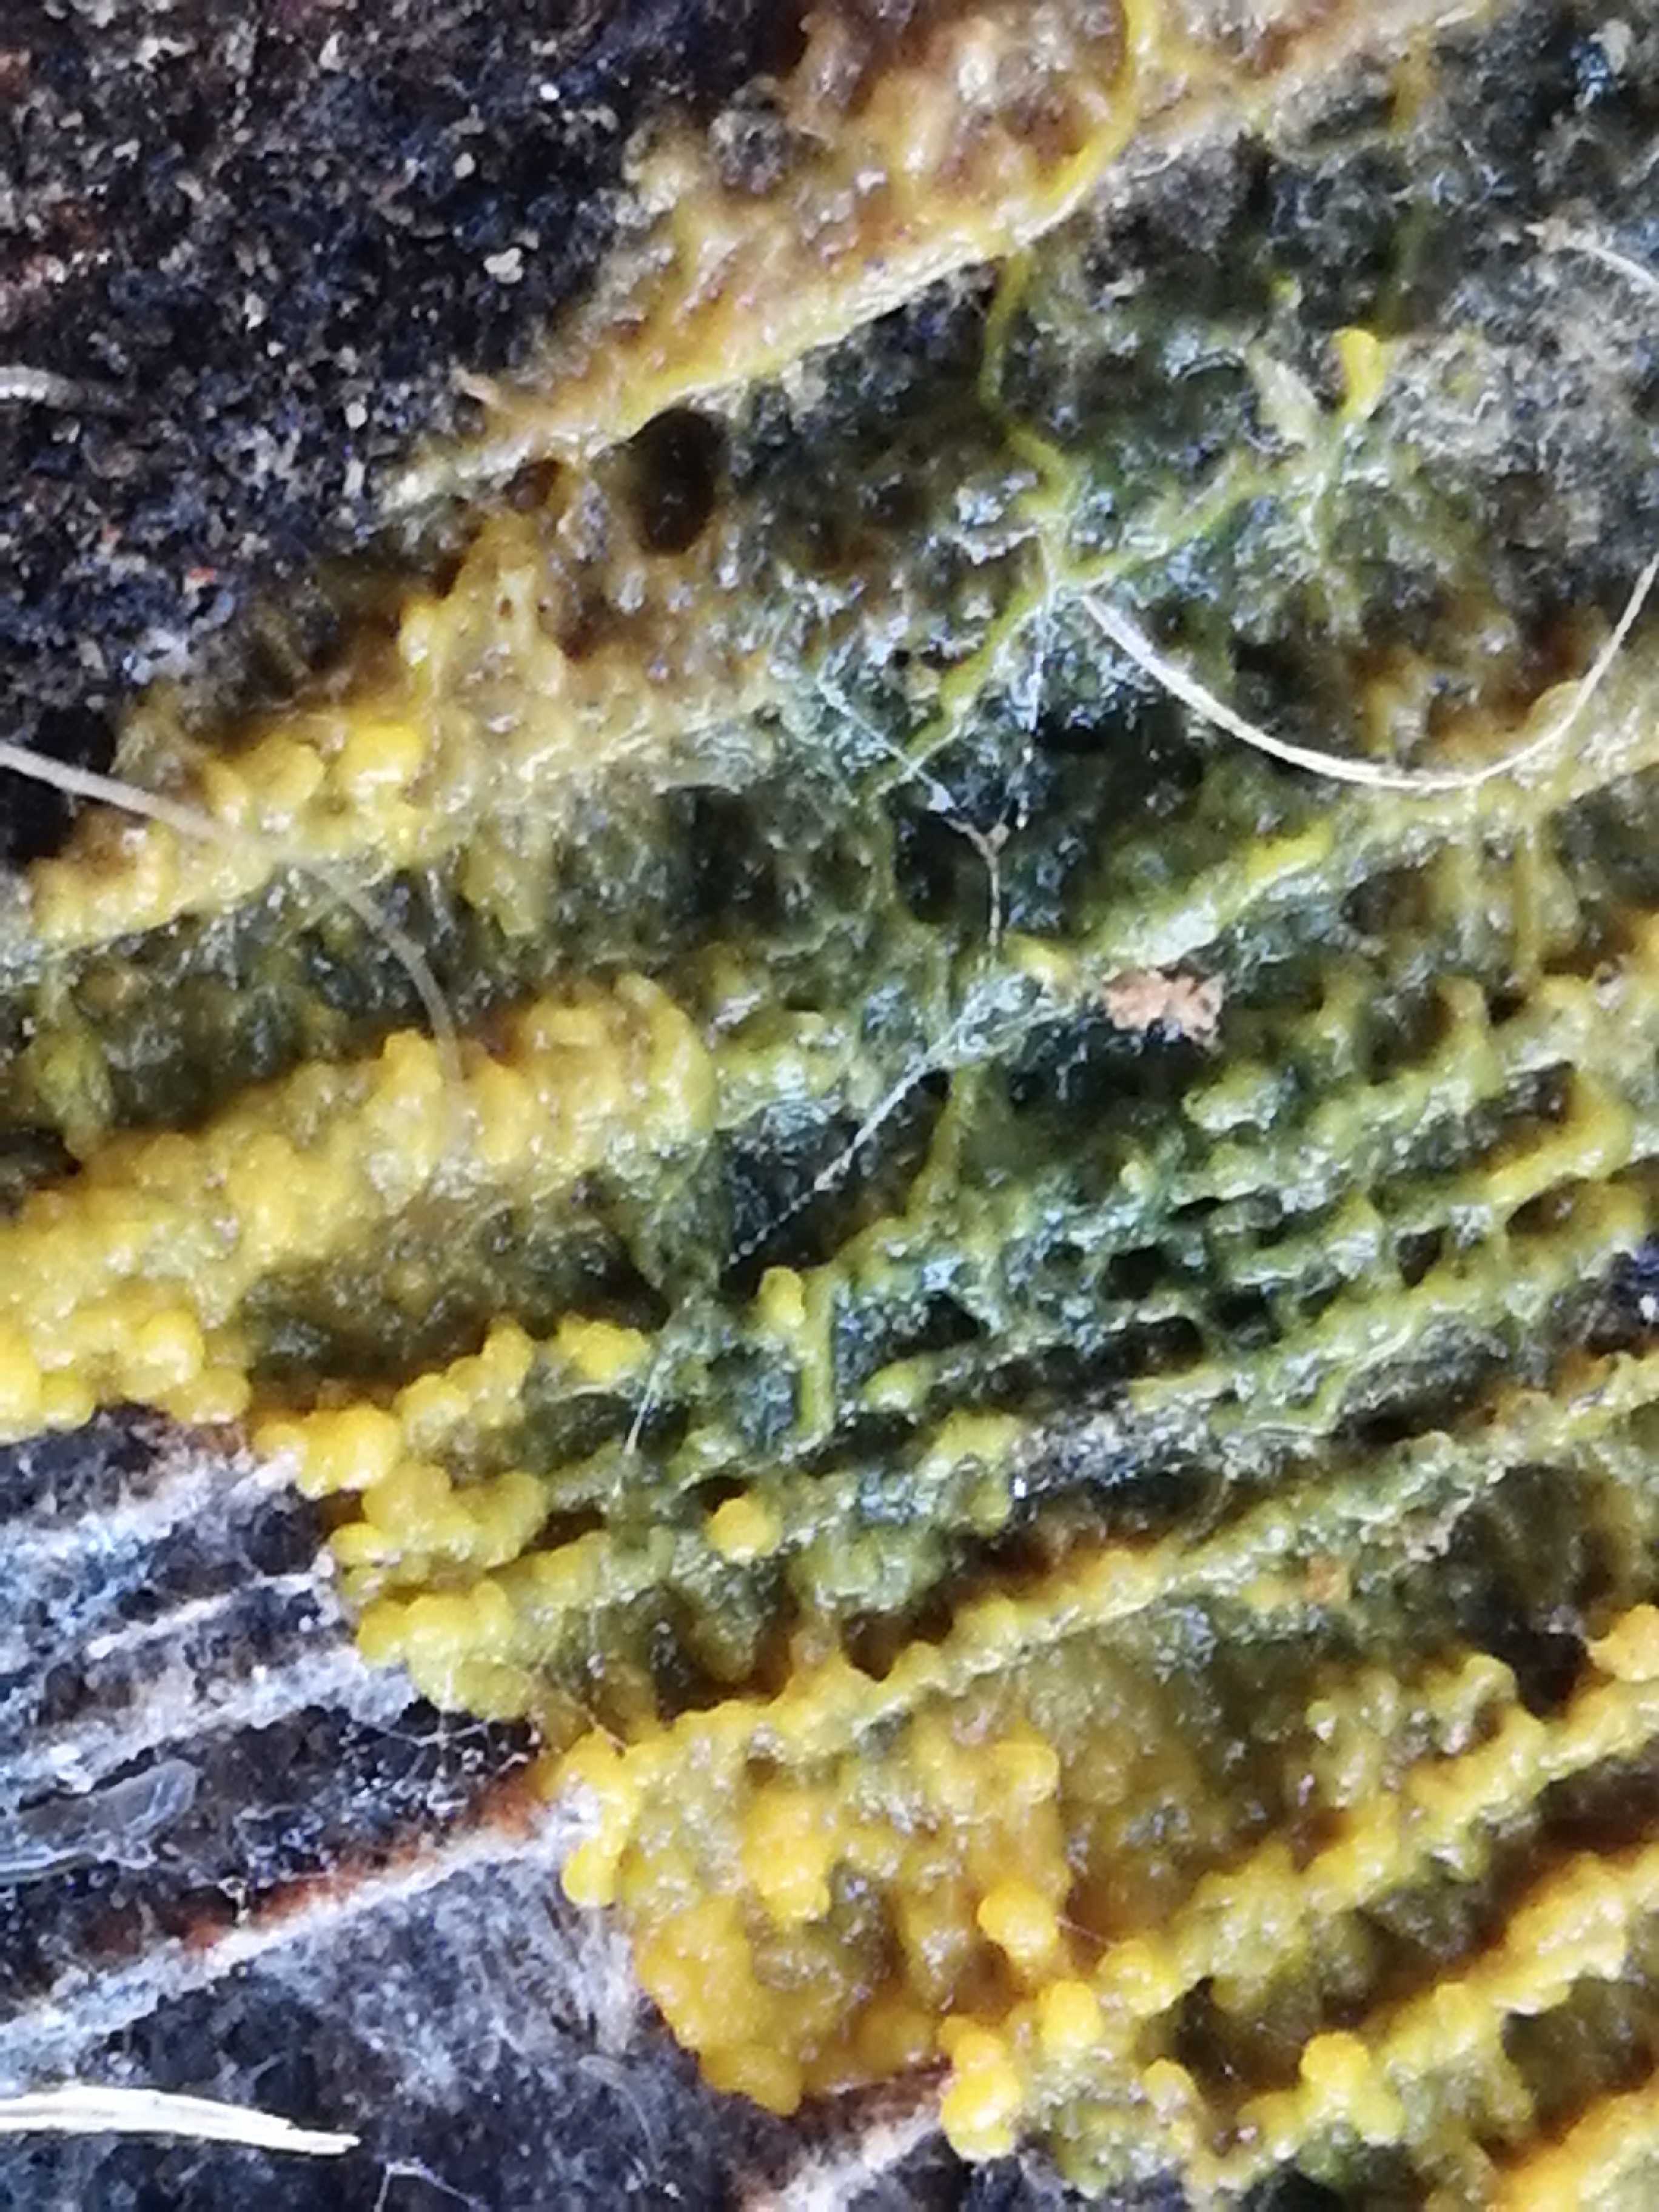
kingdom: Protozoa
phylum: Mycetozoa
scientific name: Mycetozoa
